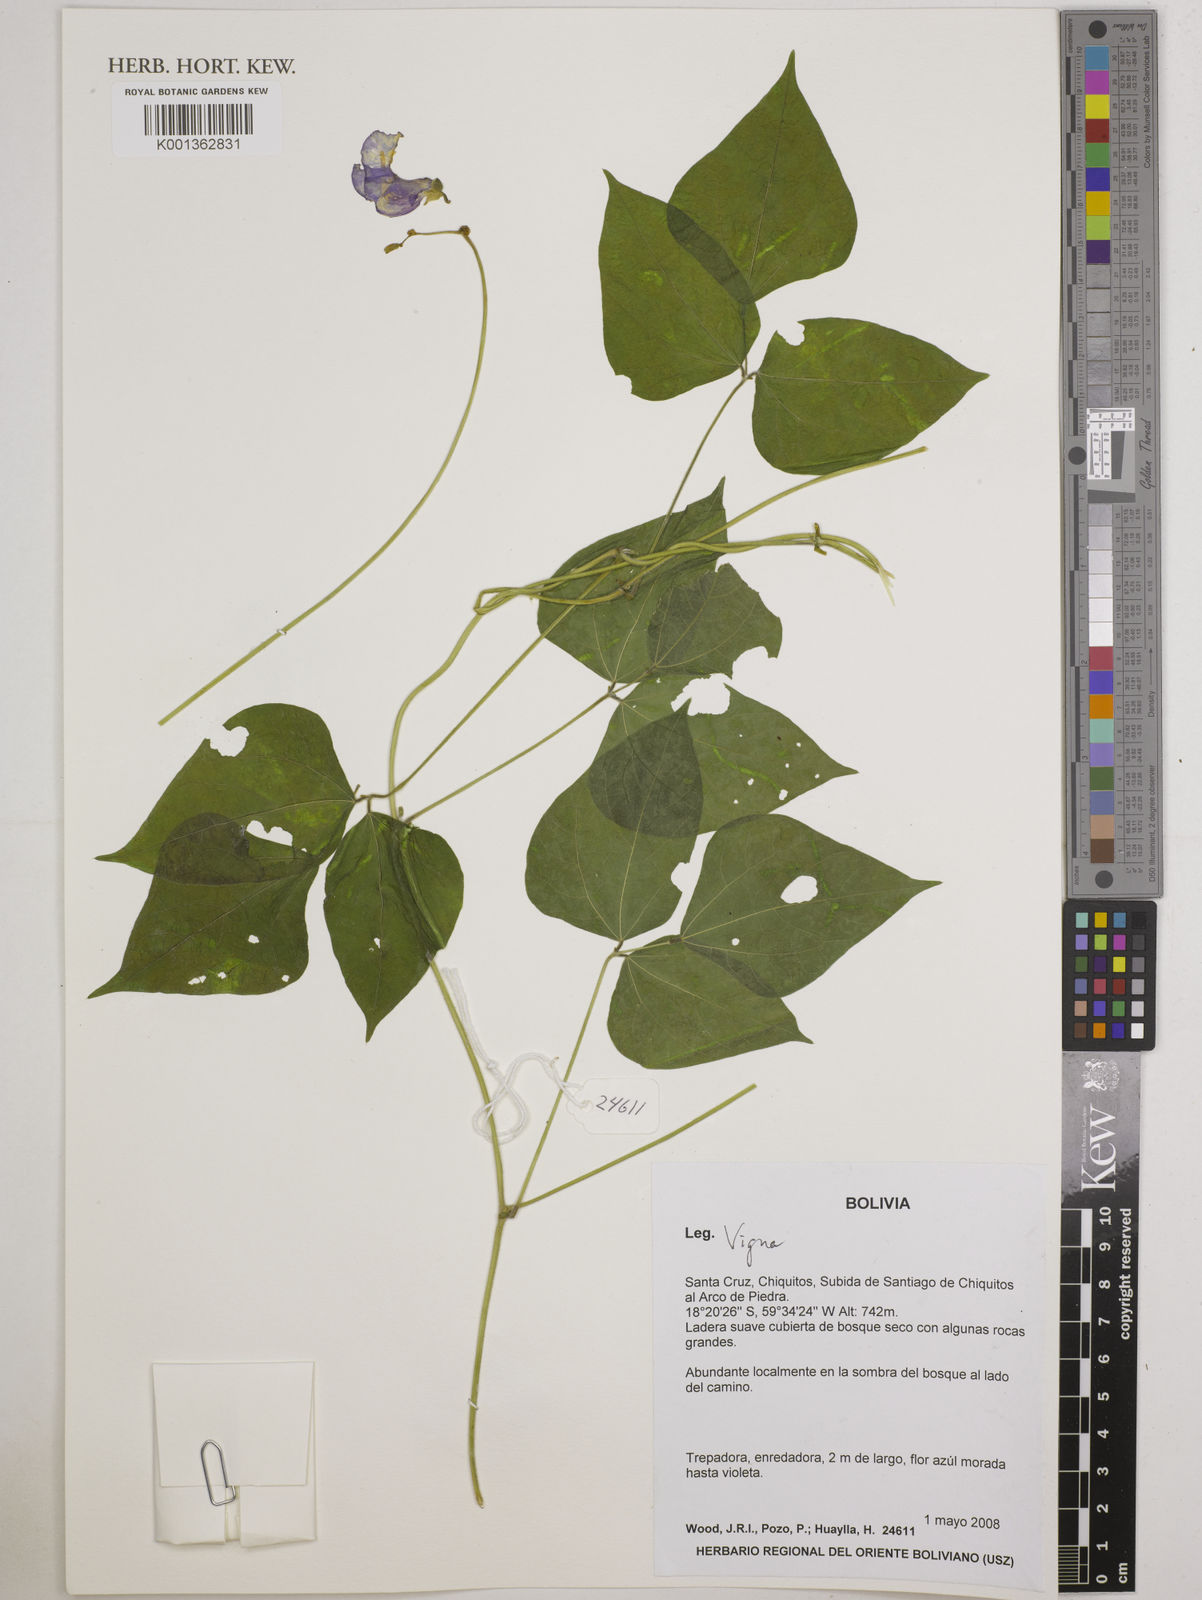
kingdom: Plantae
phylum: Tracheophyta
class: Magnoliopsida
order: Fabales
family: Fabaceae
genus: Vigna
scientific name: Vigna
